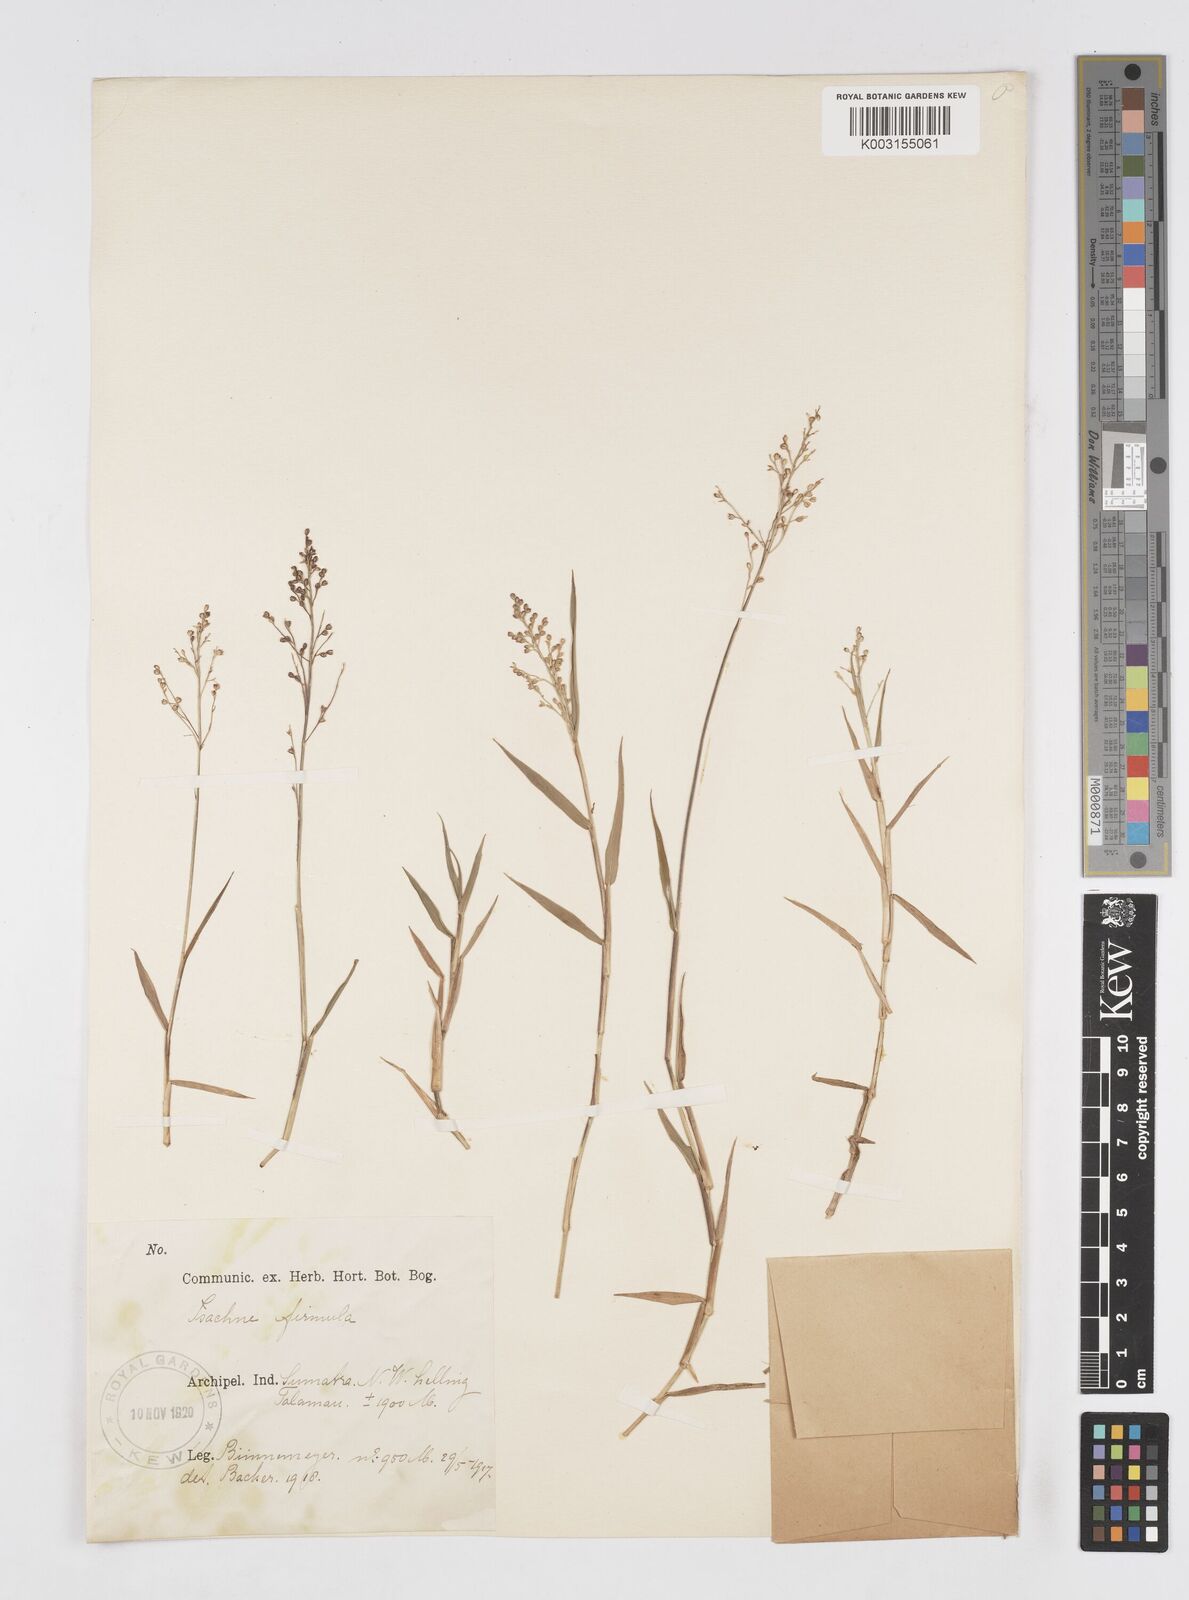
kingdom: Plantae
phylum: Tracheophyta
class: Liliopsida
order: Poales
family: Poaceae
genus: Isachne
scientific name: Isachne pangerangensis
